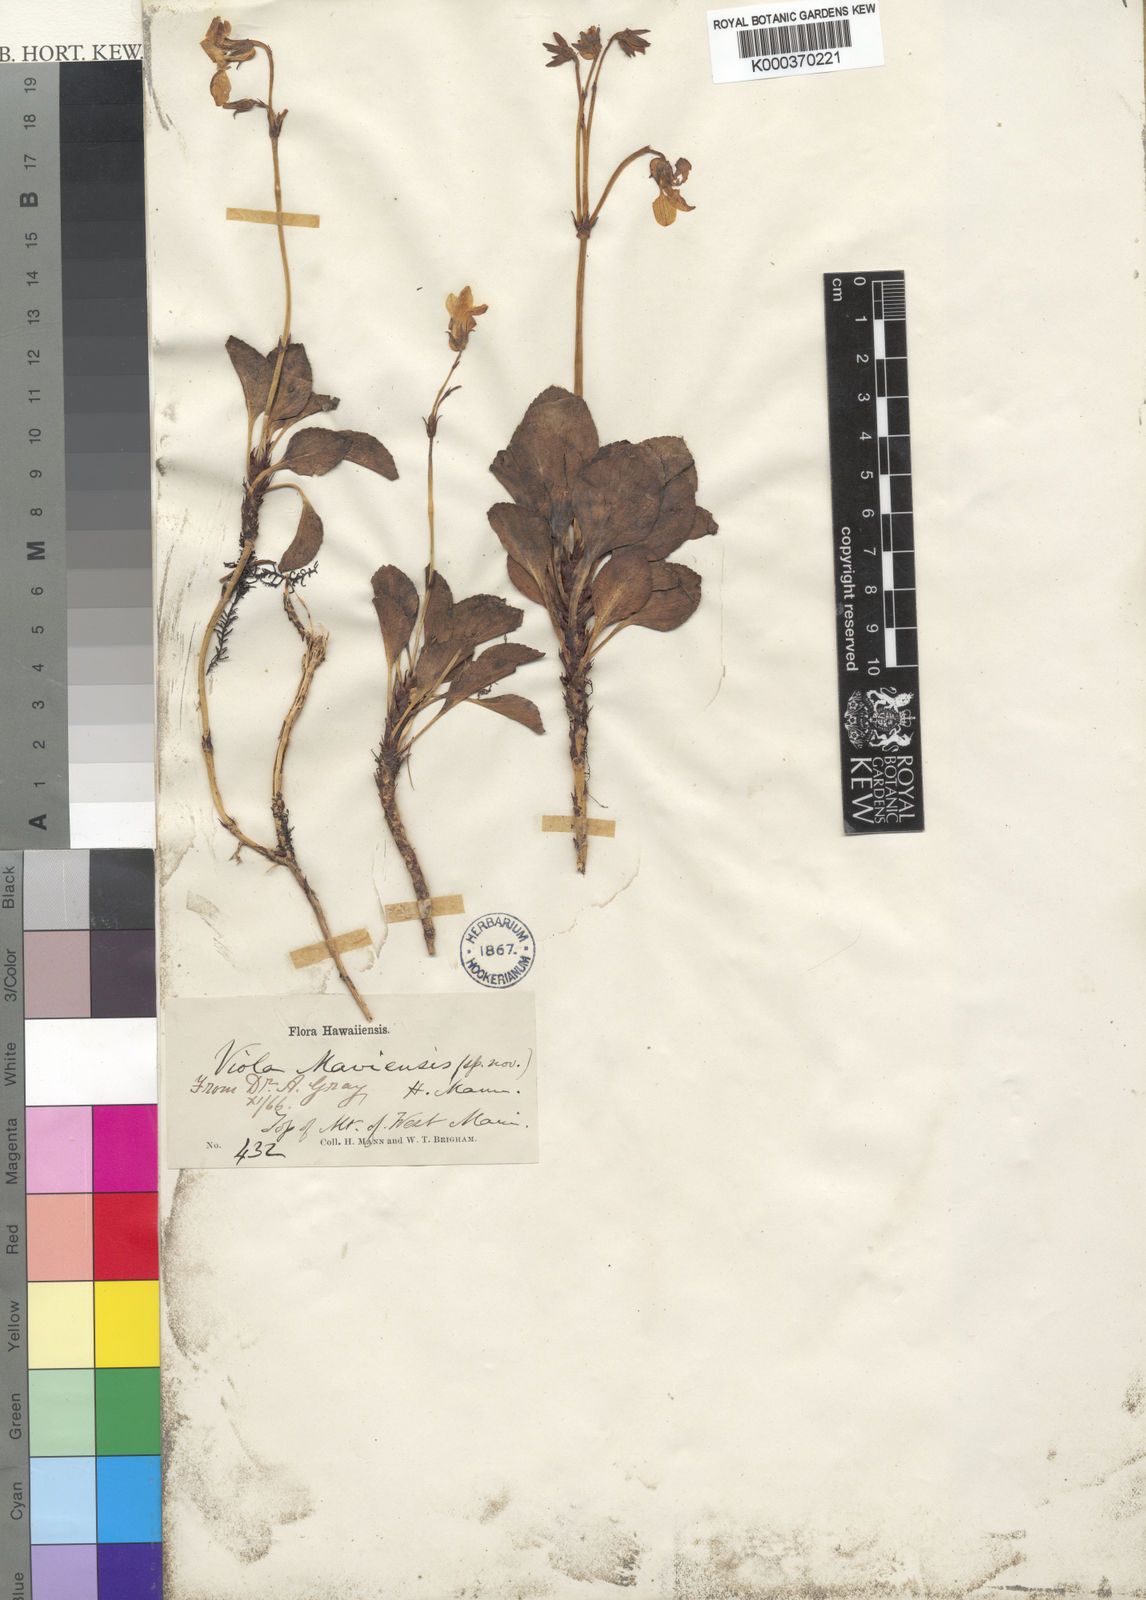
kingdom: Plantae
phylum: Tracheophyta
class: Magnoliopsida
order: Malpighiales
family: Violaceae
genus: Viola
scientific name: Viola maviensis
